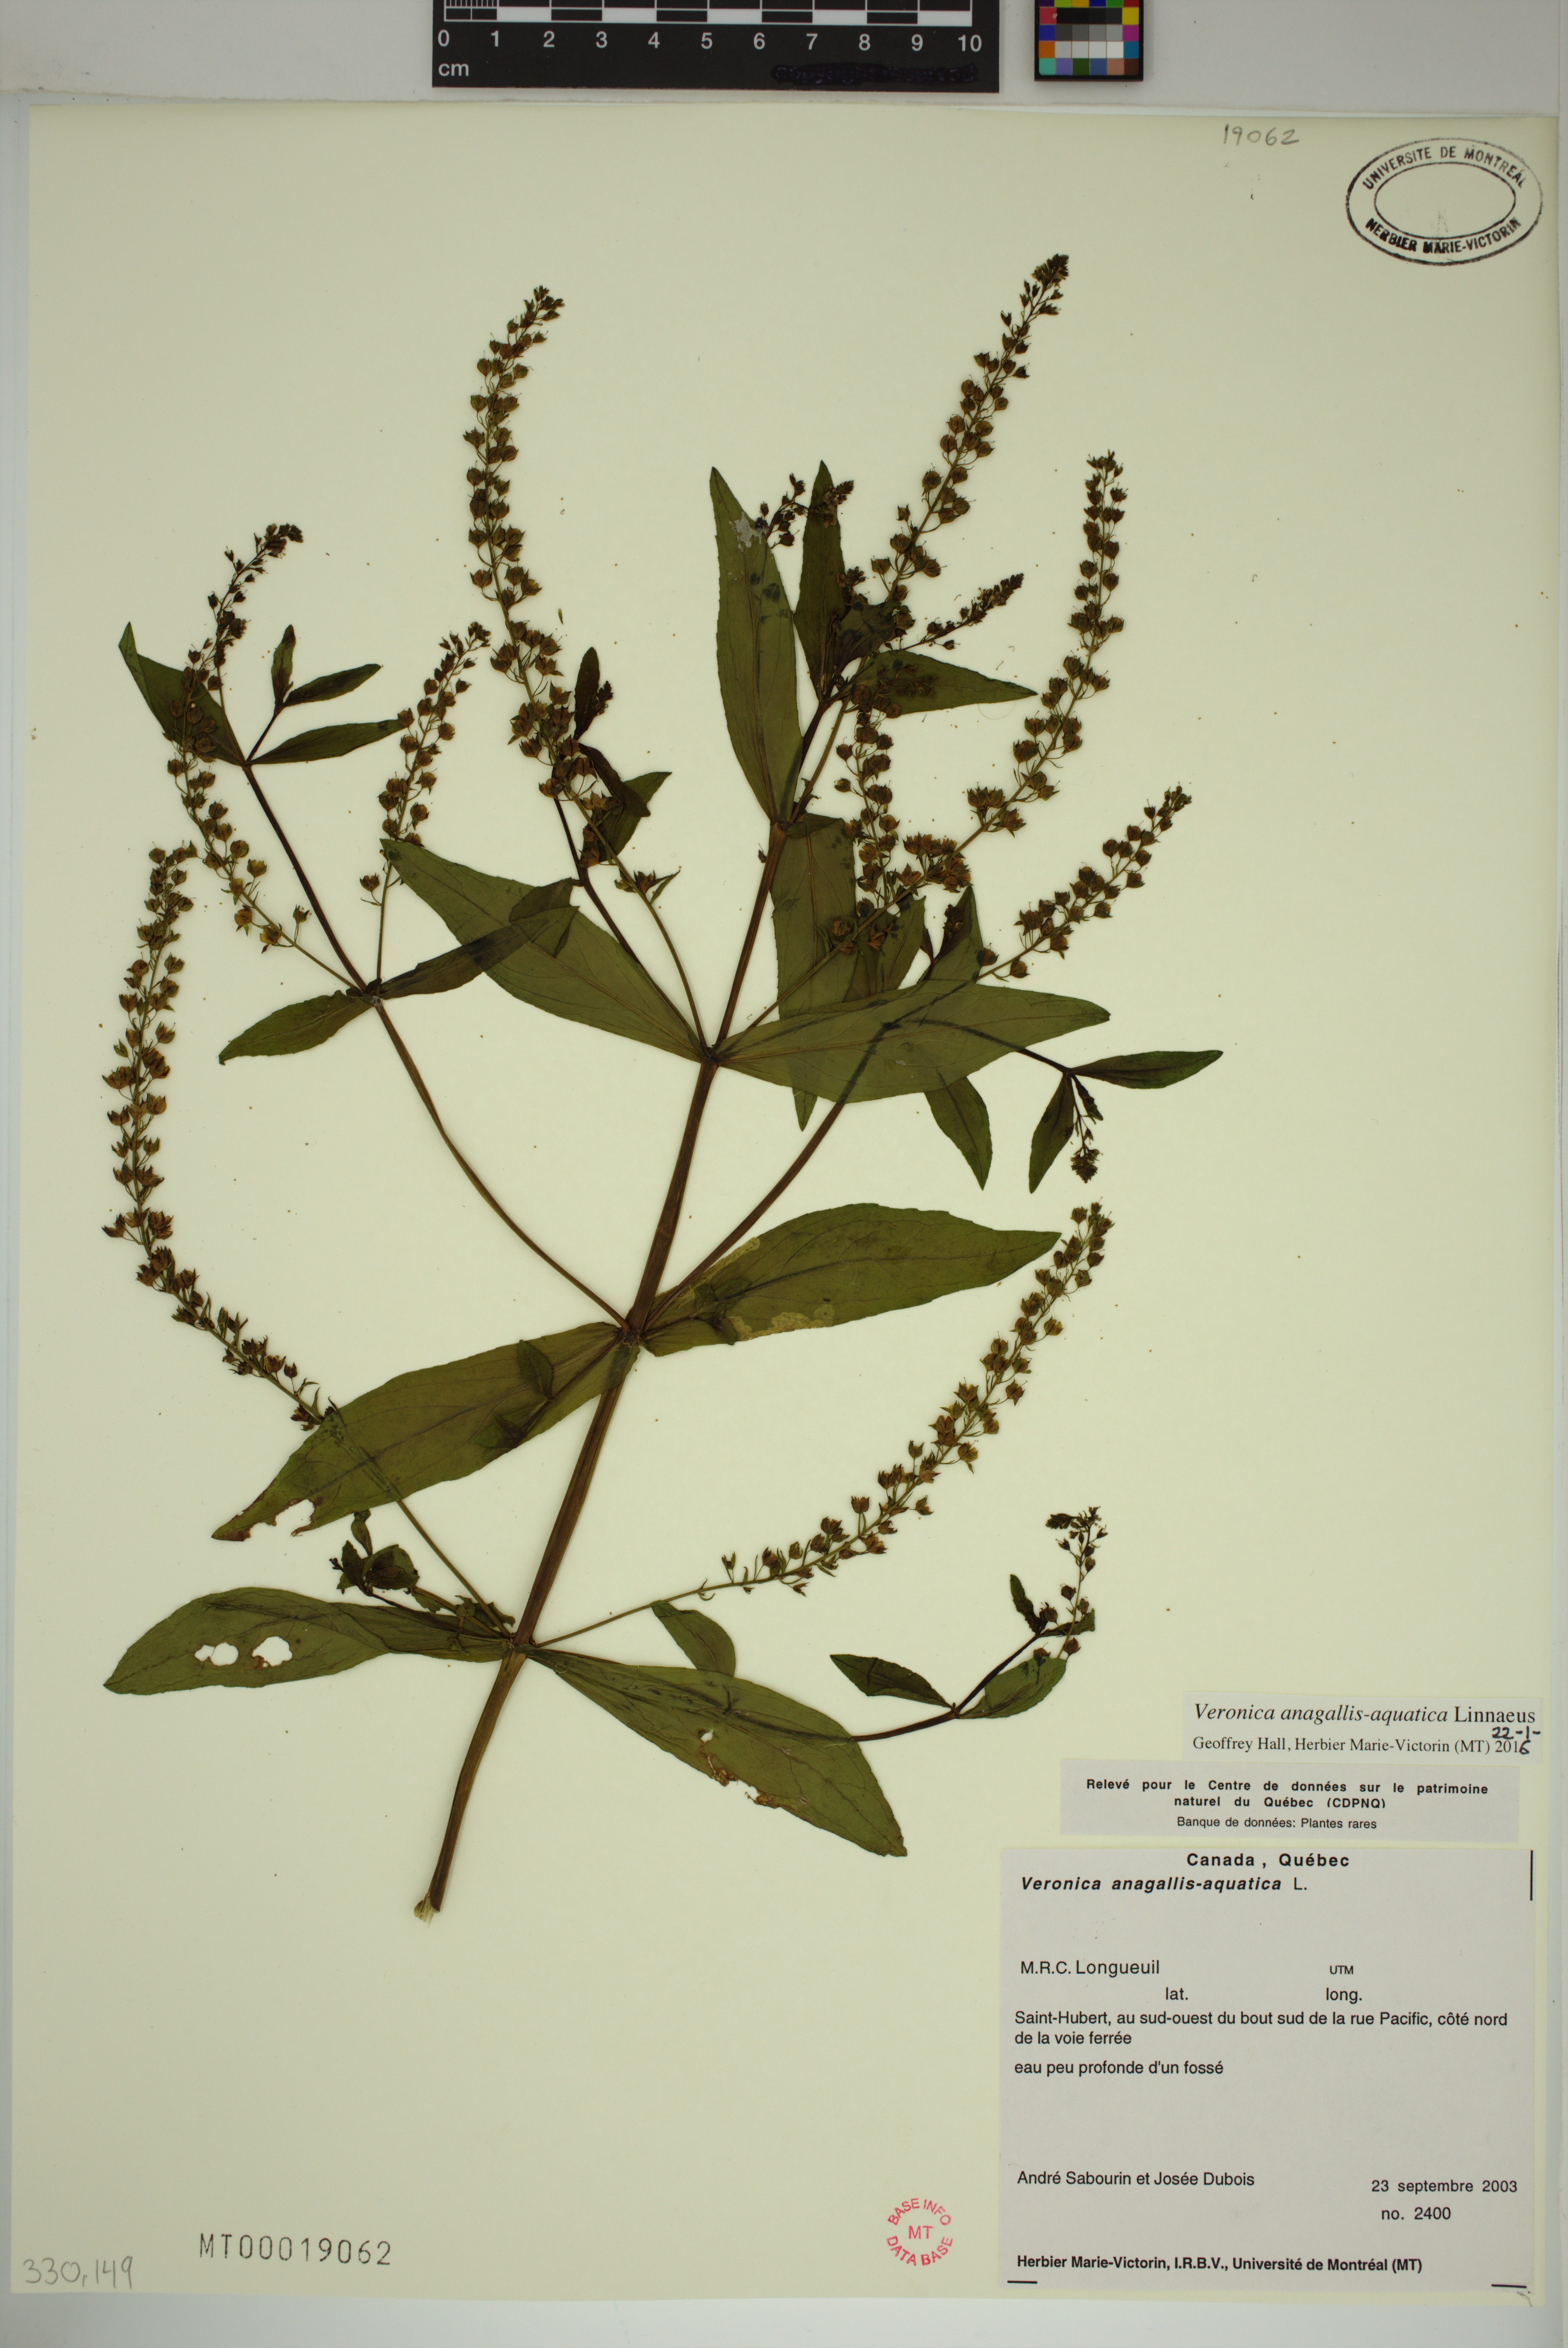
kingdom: Plantae
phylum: Tracheophyta
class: Magnoliopsida
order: Lamiales
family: Plantaginaceae
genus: Veronica
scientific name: Veronica anagallis-aquatica
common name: Water speedwell
